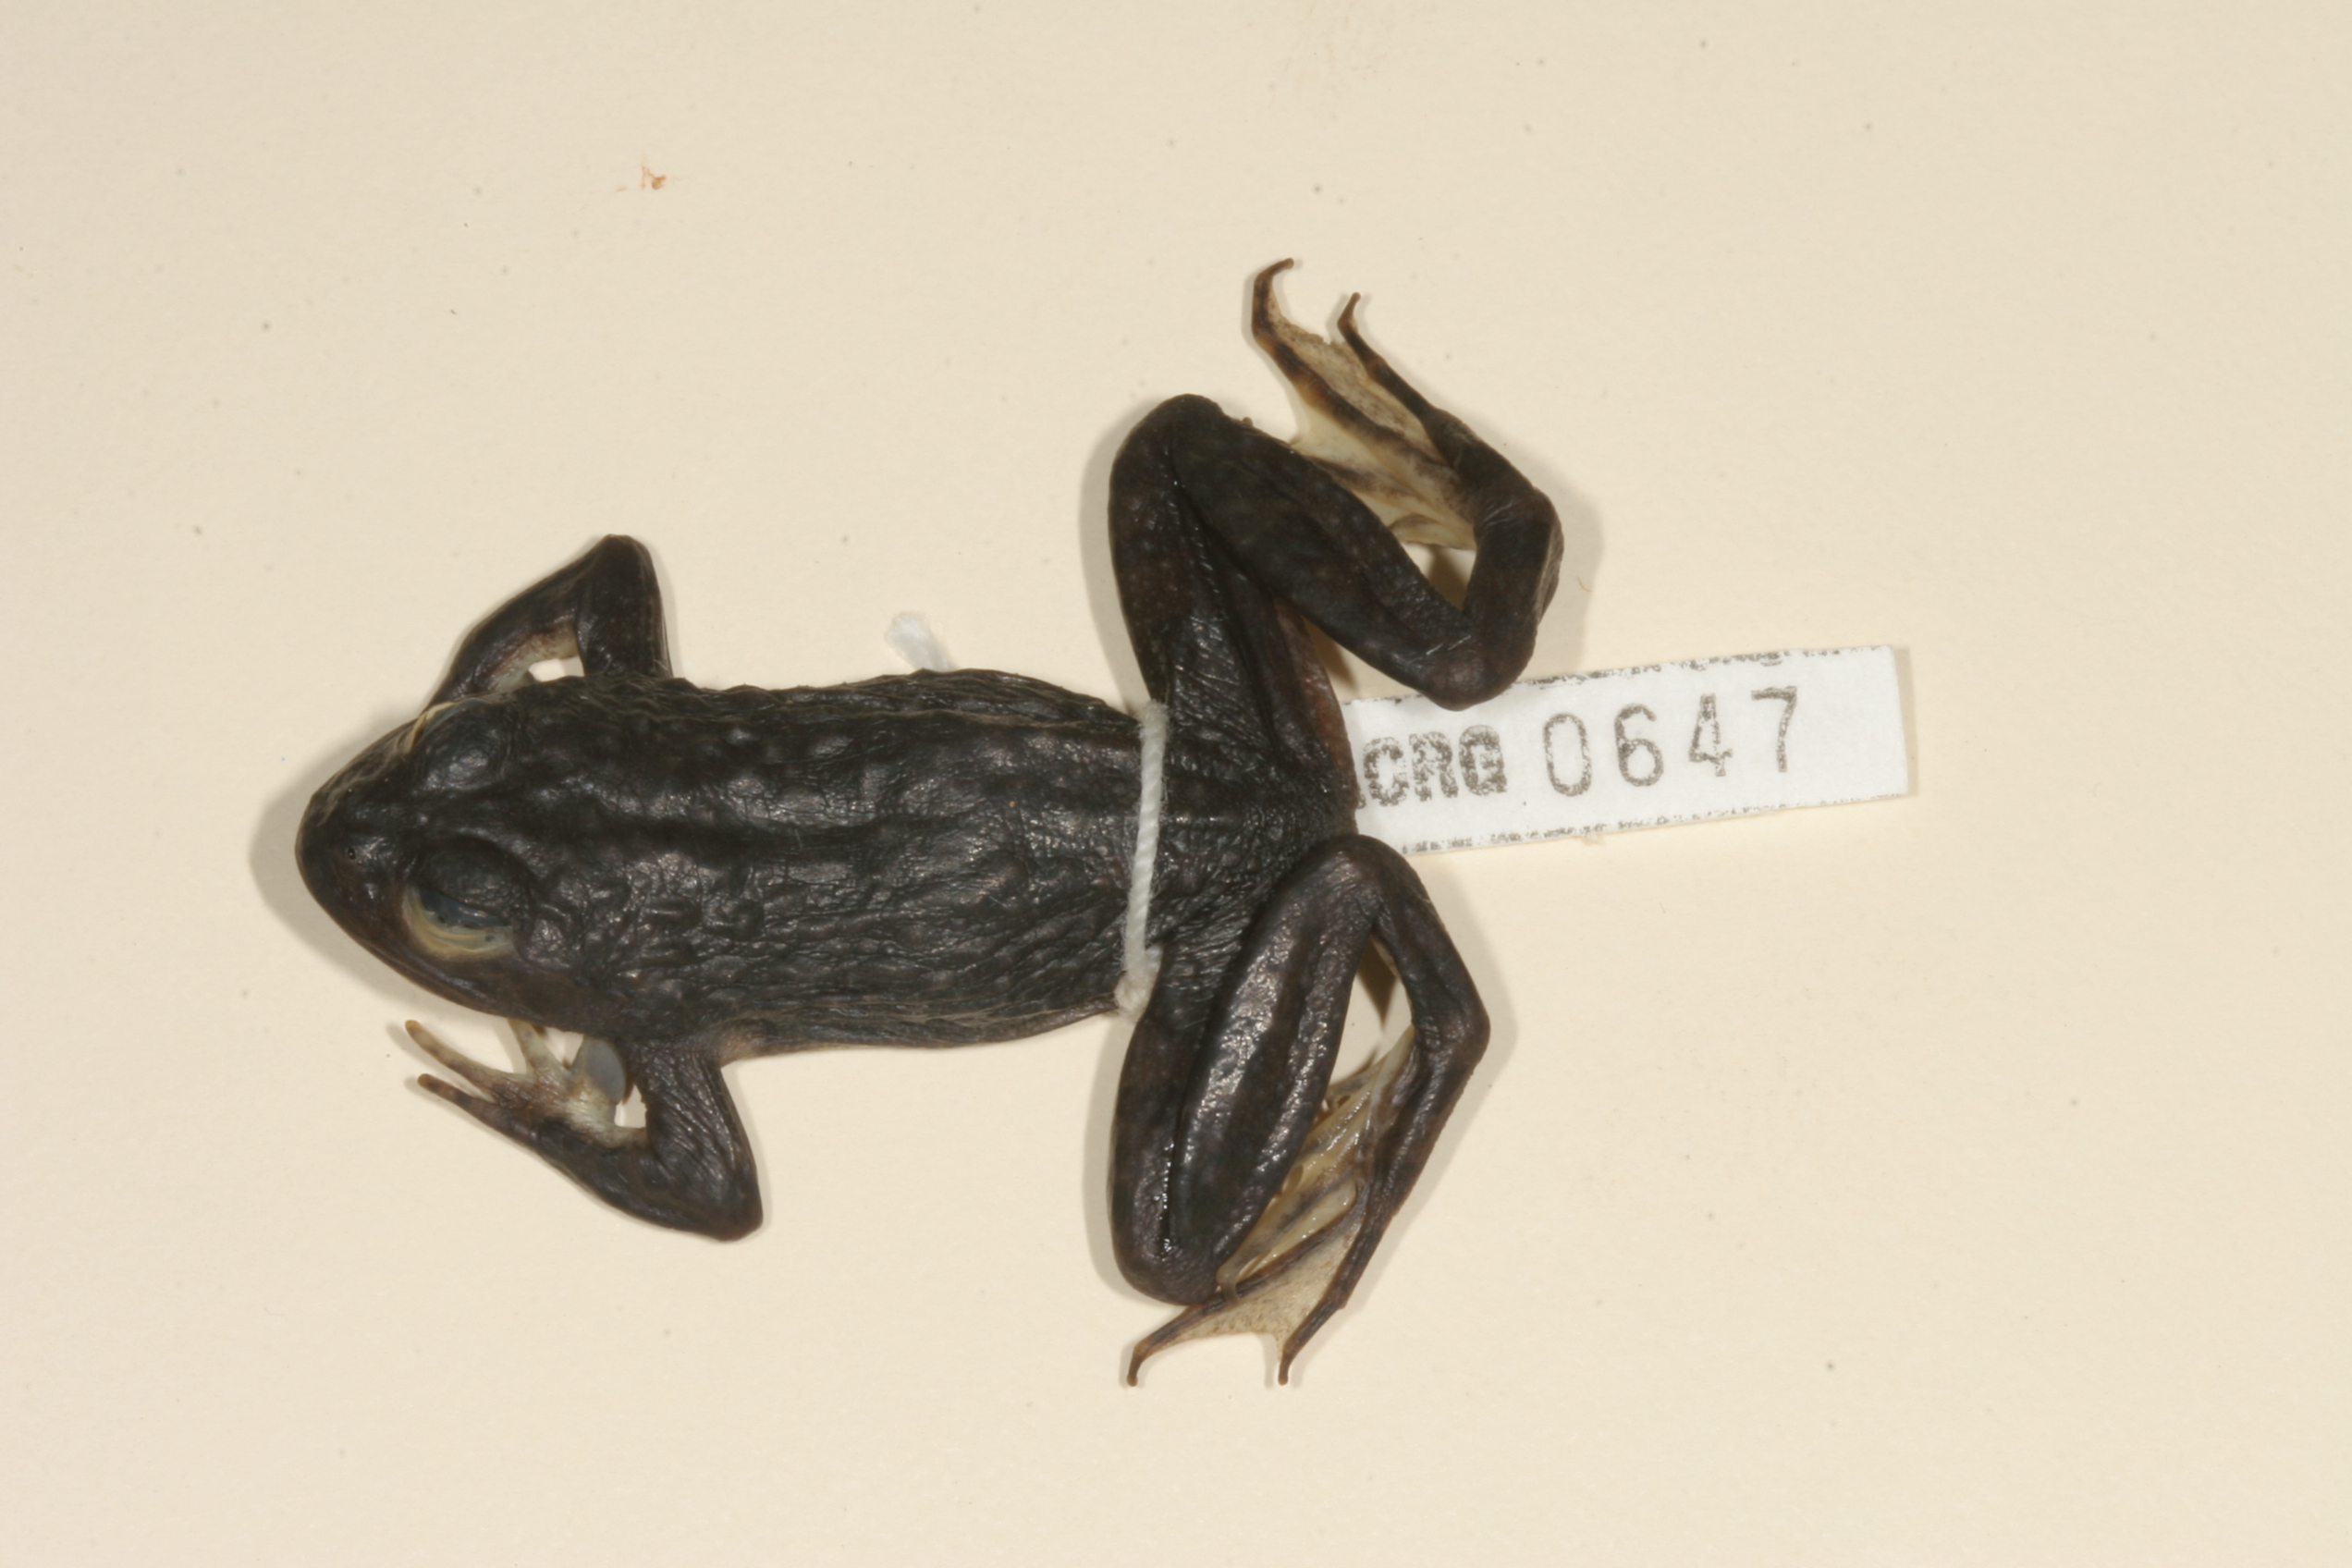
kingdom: Animalia
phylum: Chordata
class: Amphibia
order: Anura
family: Pyxicephalidae
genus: Amietia
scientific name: Amietia vertebralis
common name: Drakensberg stream frog
